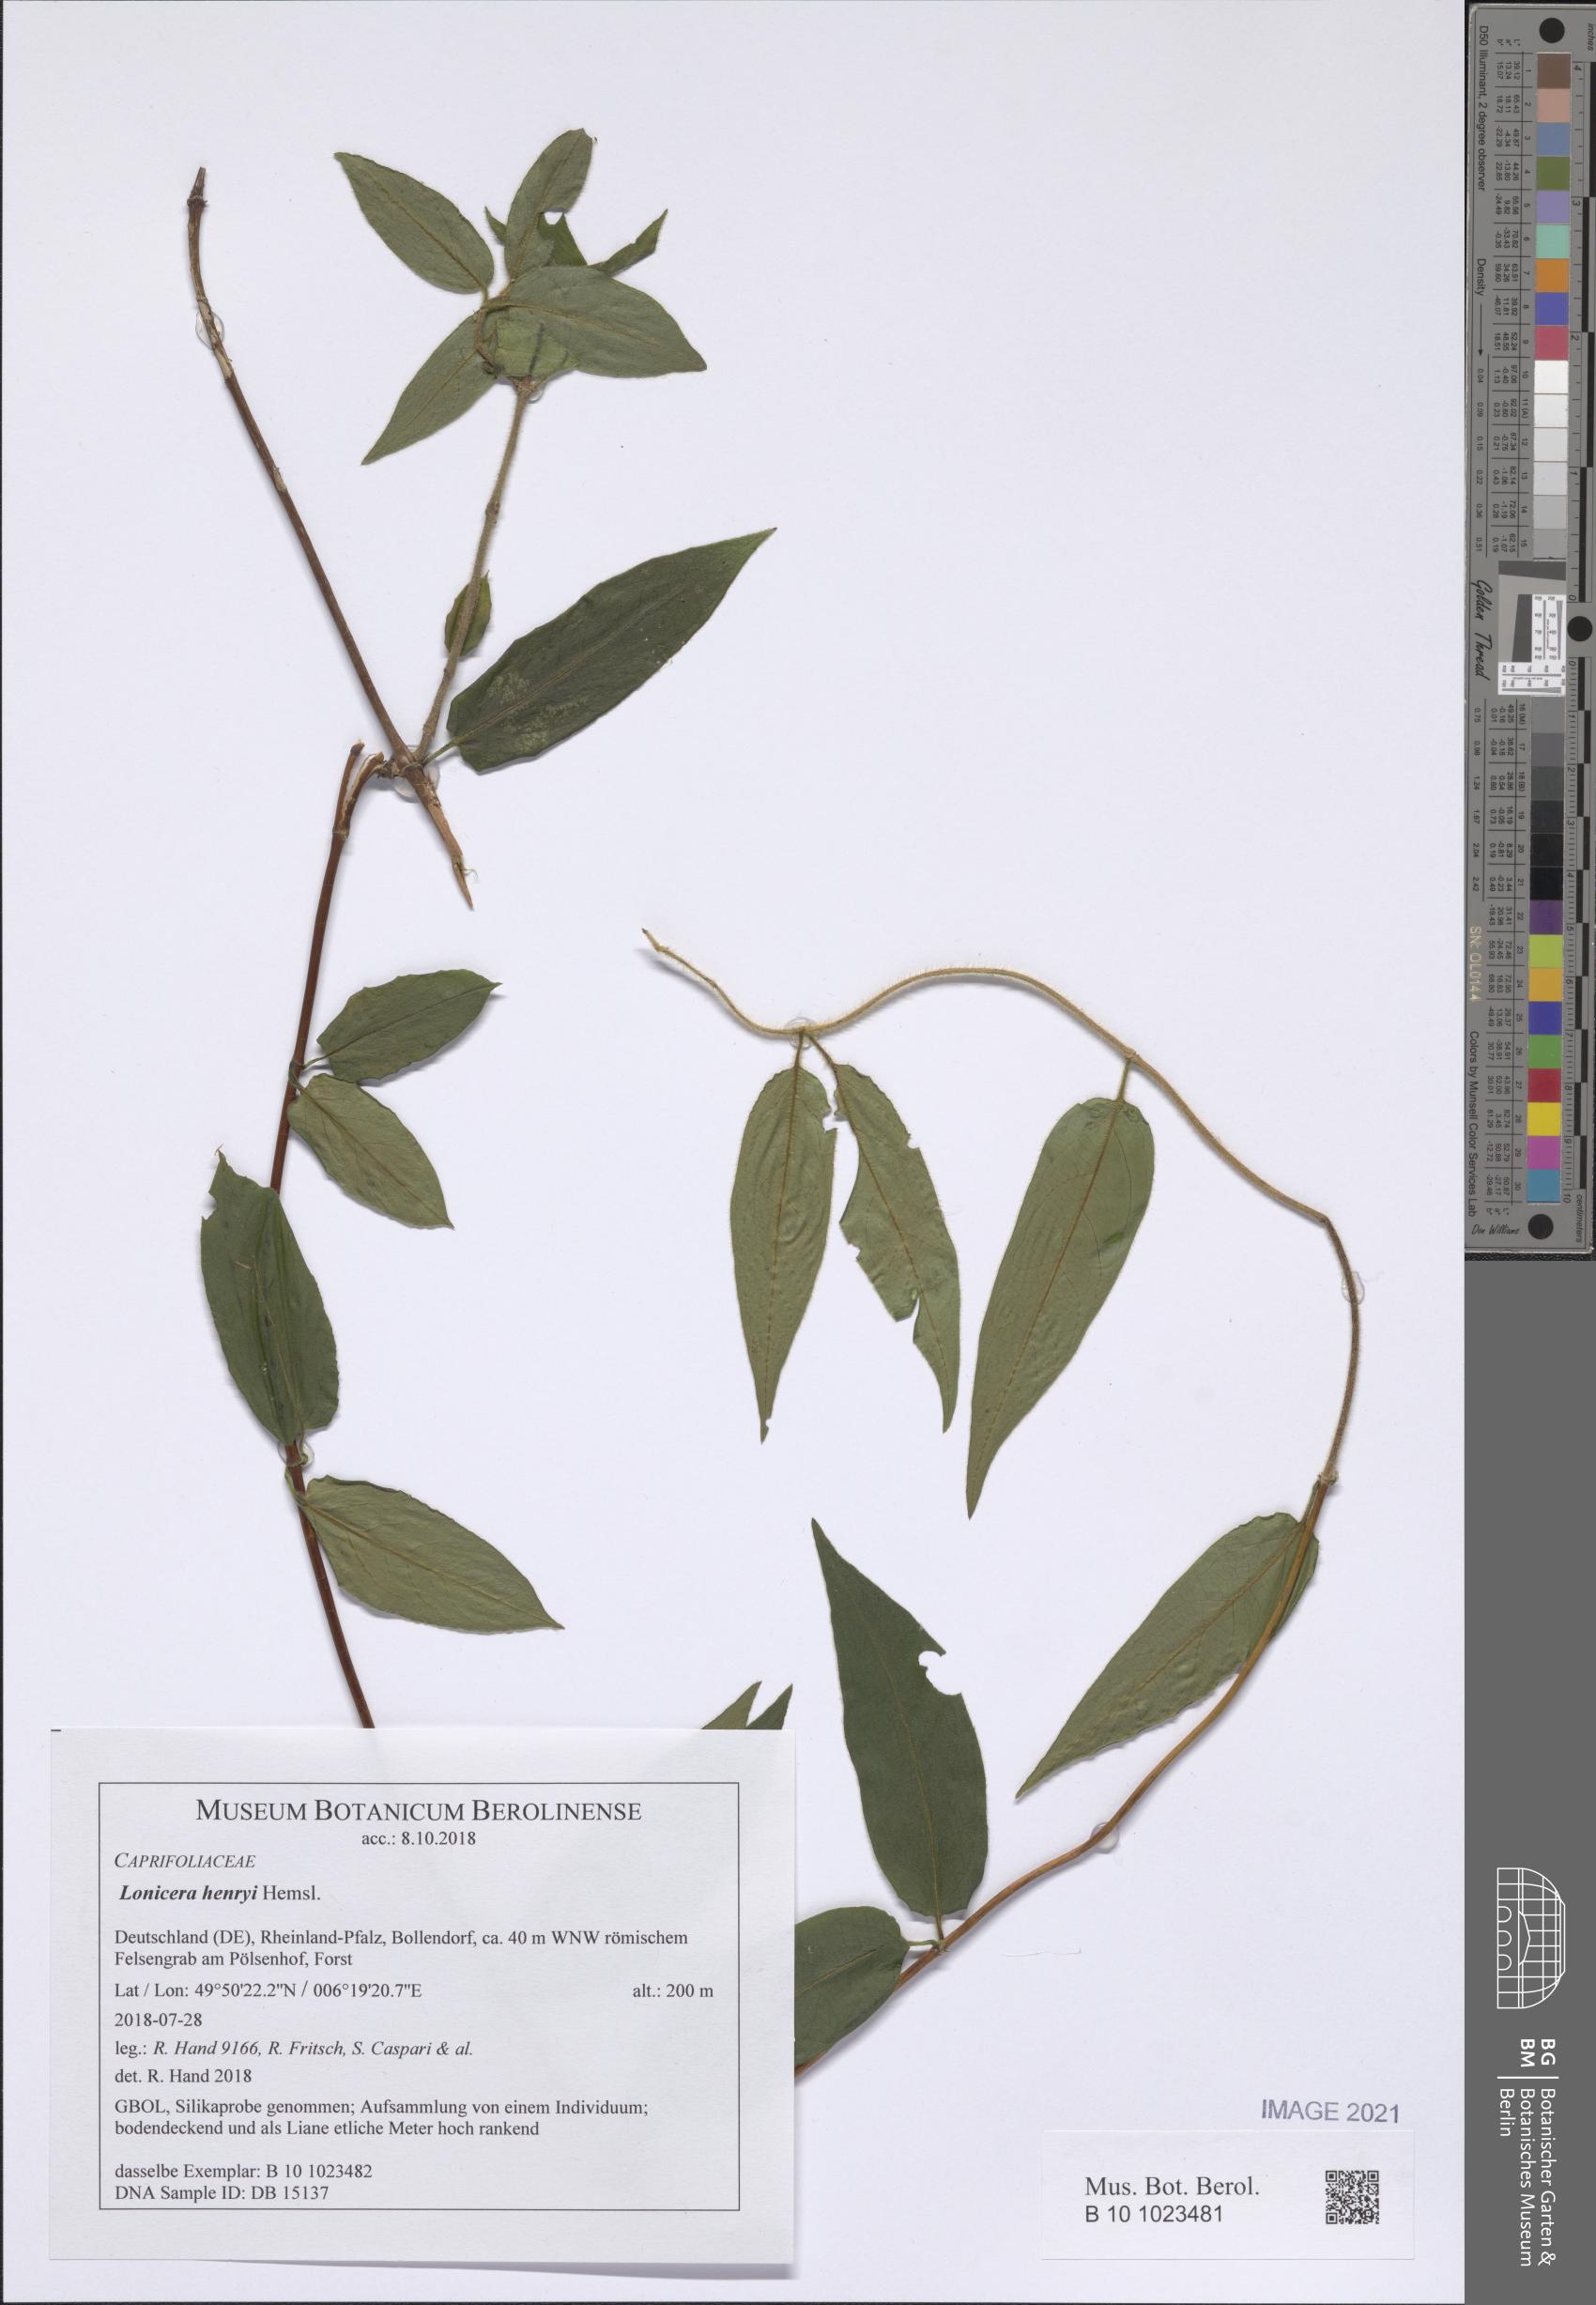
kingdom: Plantae
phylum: Tracheophyta
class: Magnoliopsida
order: Dipsacales
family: Caprifoliaceae
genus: Lonicera
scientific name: Lonicera acuminata
